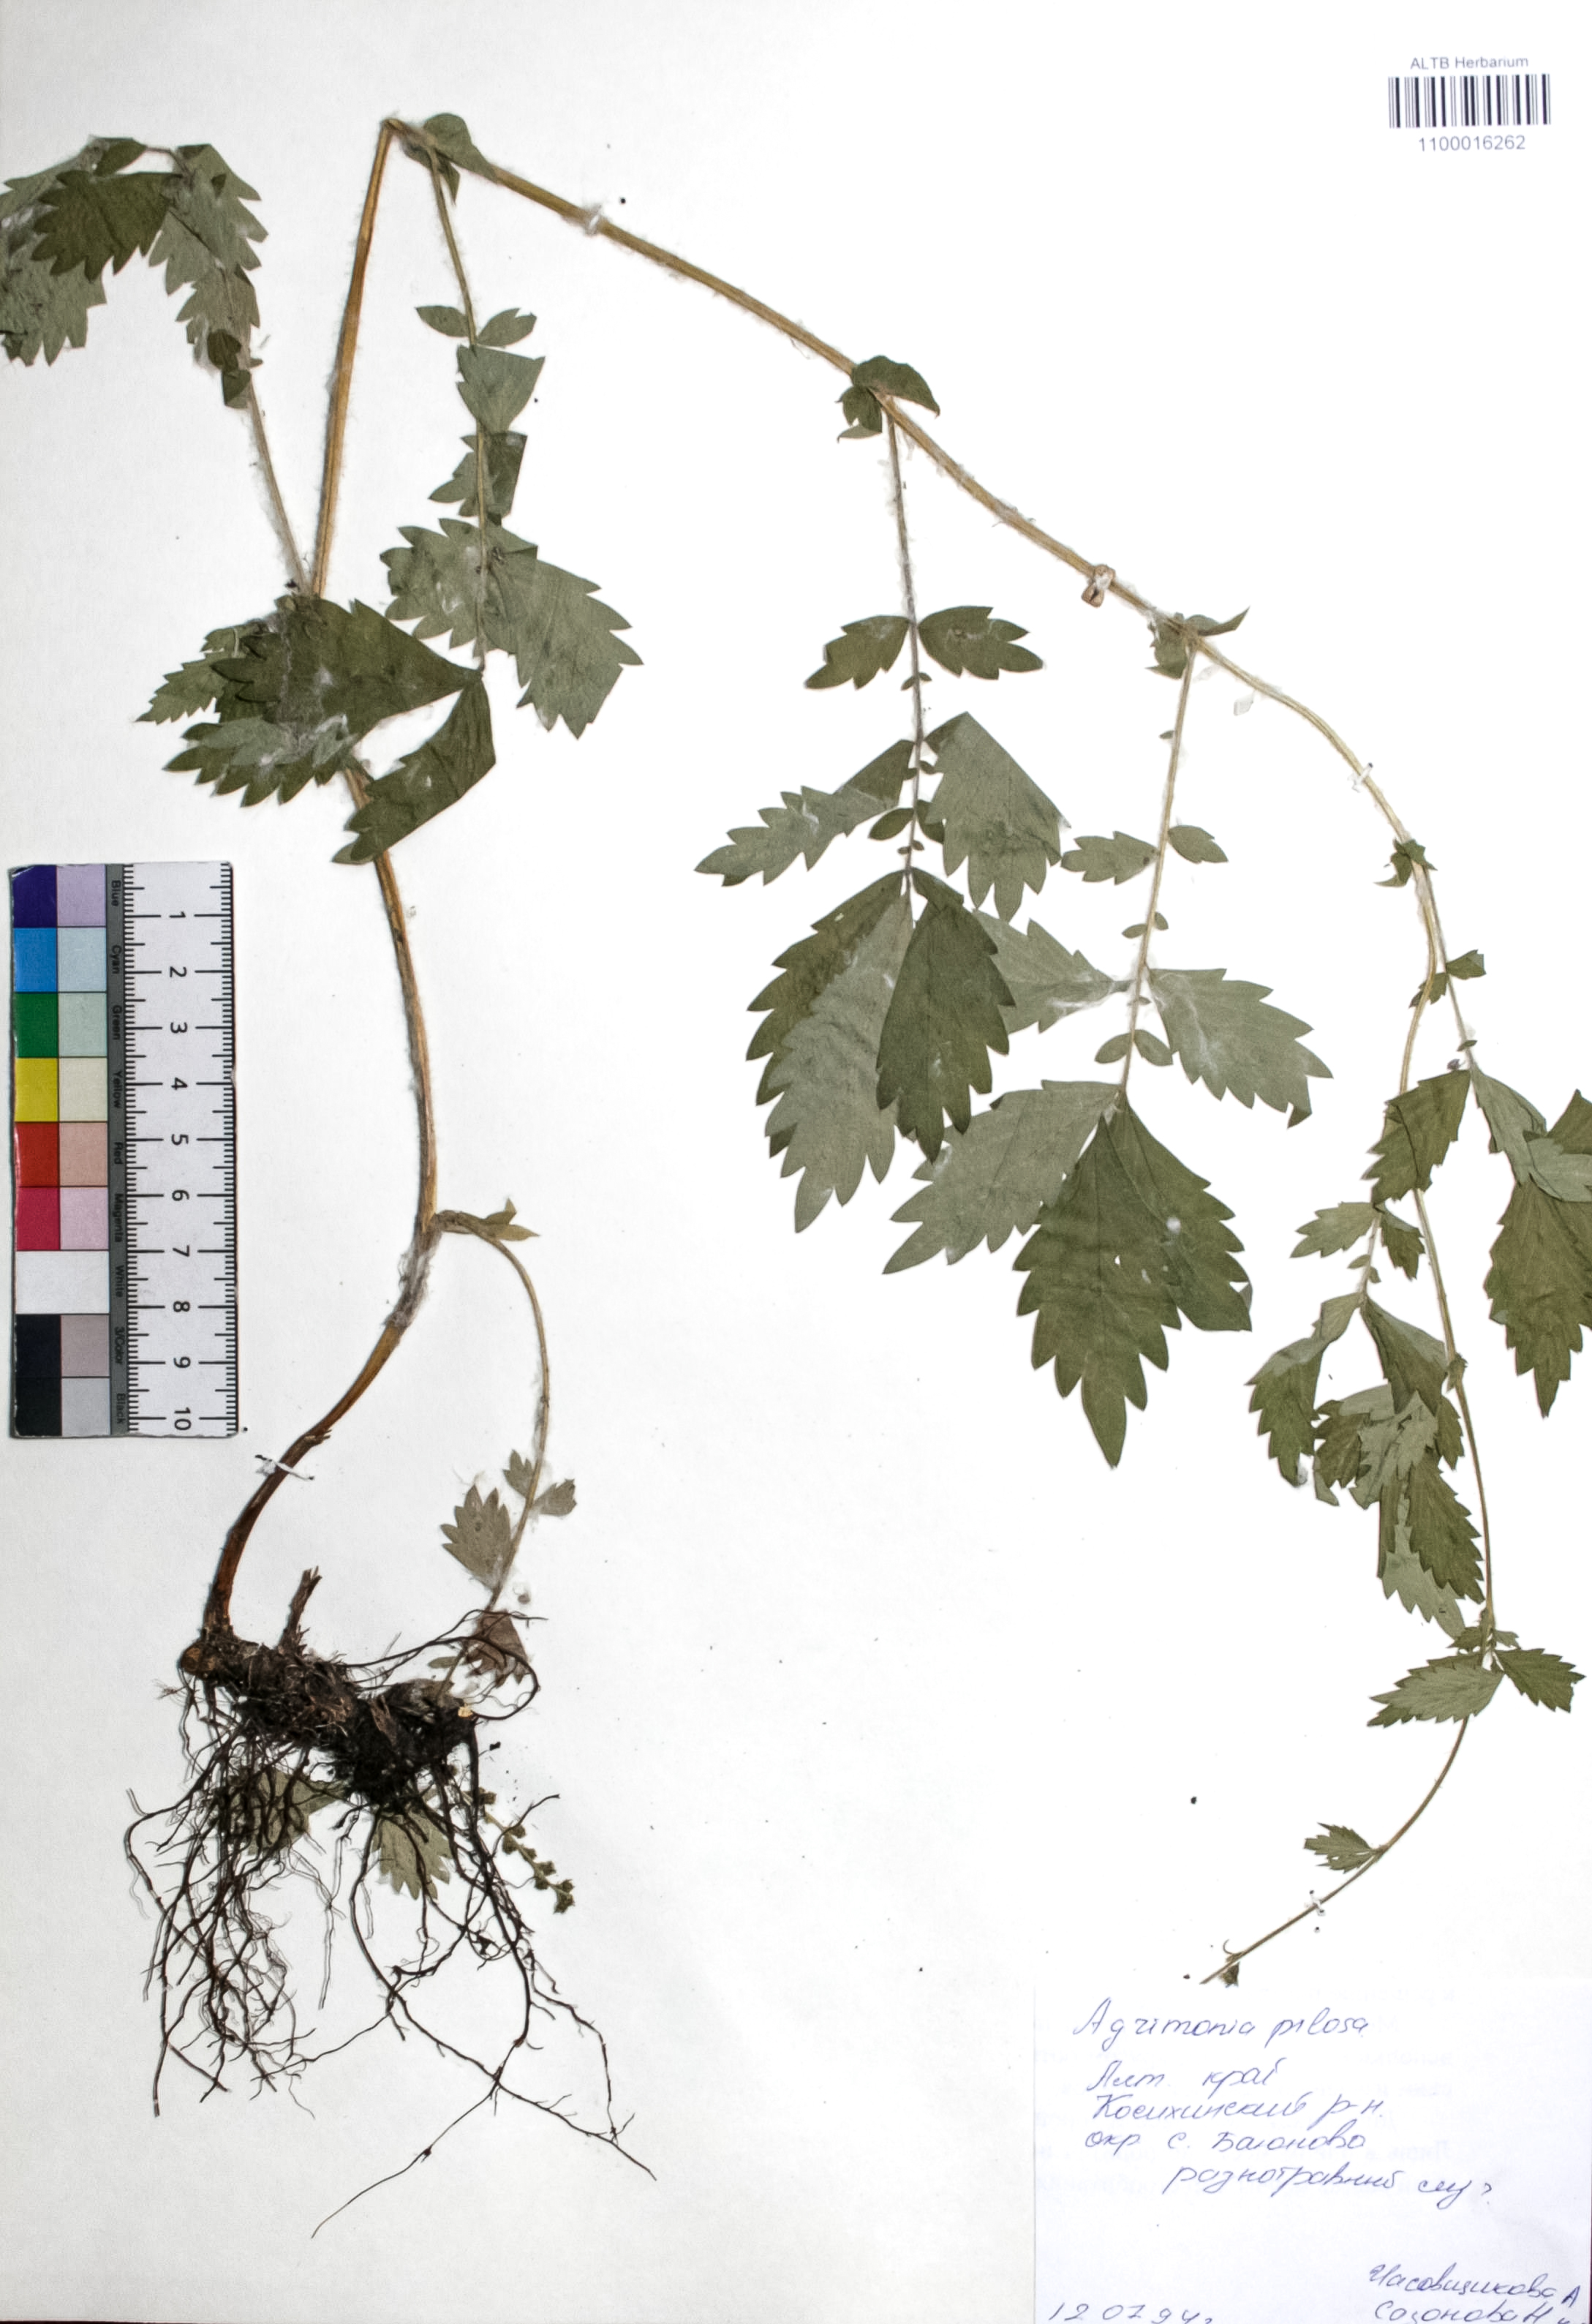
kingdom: Plantae
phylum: Tracheophyta
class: Magnoliopsida
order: Rosales
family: Rosaceae
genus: Agrimonia
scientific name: Agrimonia pilosa
